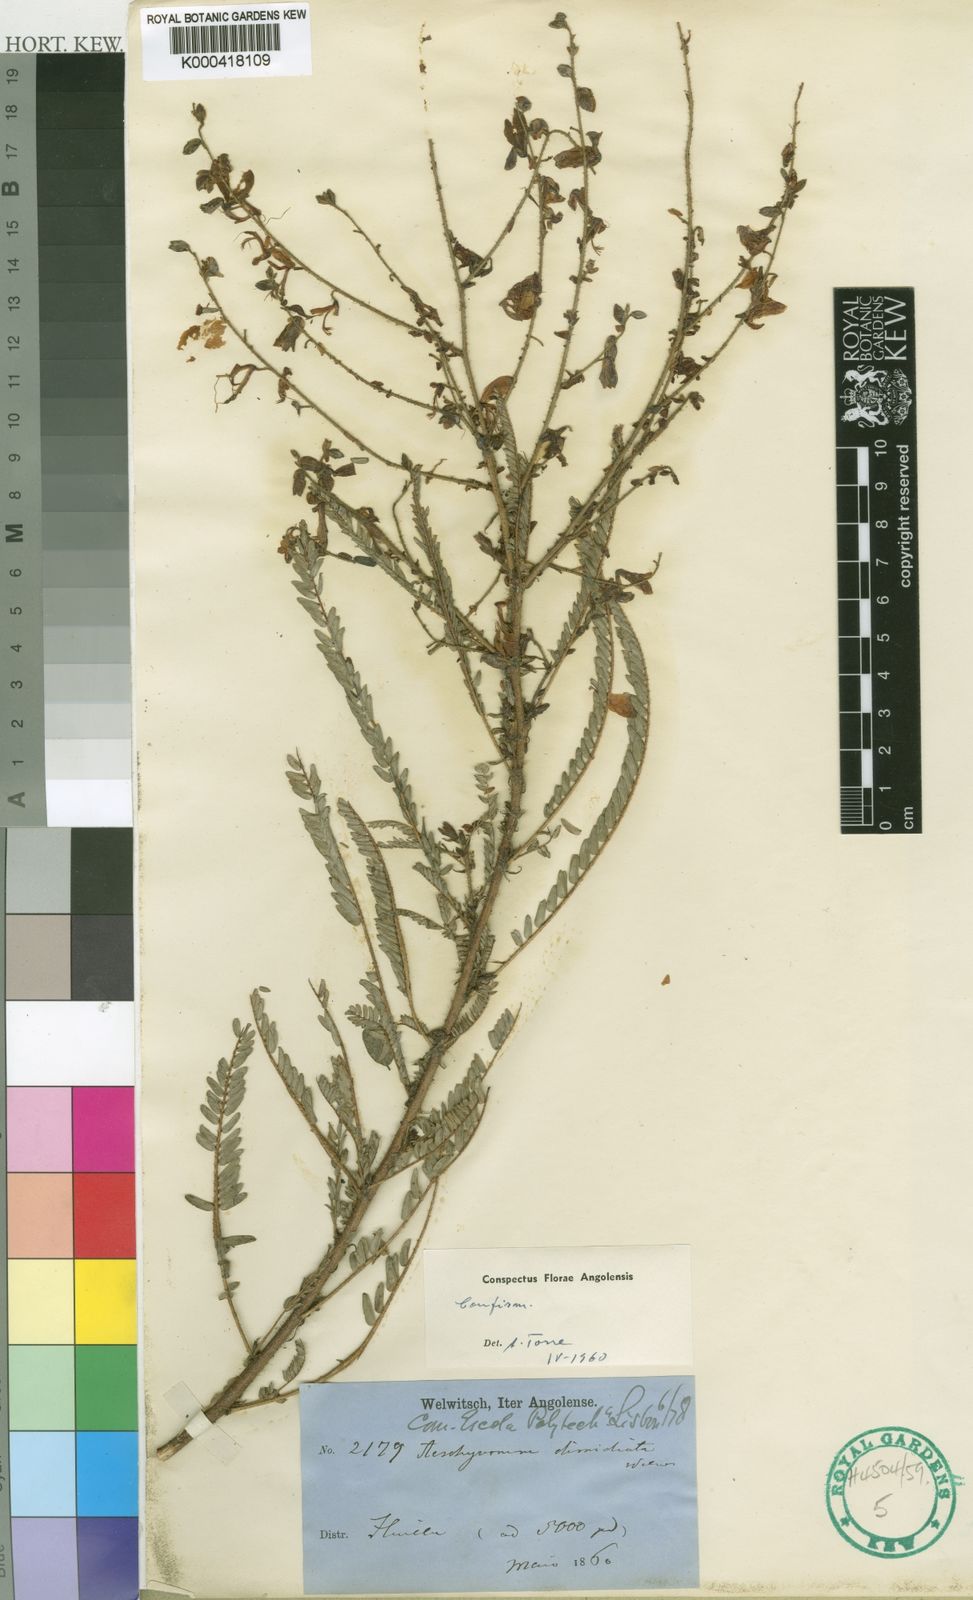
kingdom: Plantae
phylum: Tracheophyta
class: Magnoliopsida
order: Fabales
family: Fabaceae
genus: Aeschynomene
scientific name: Aeschynomene
